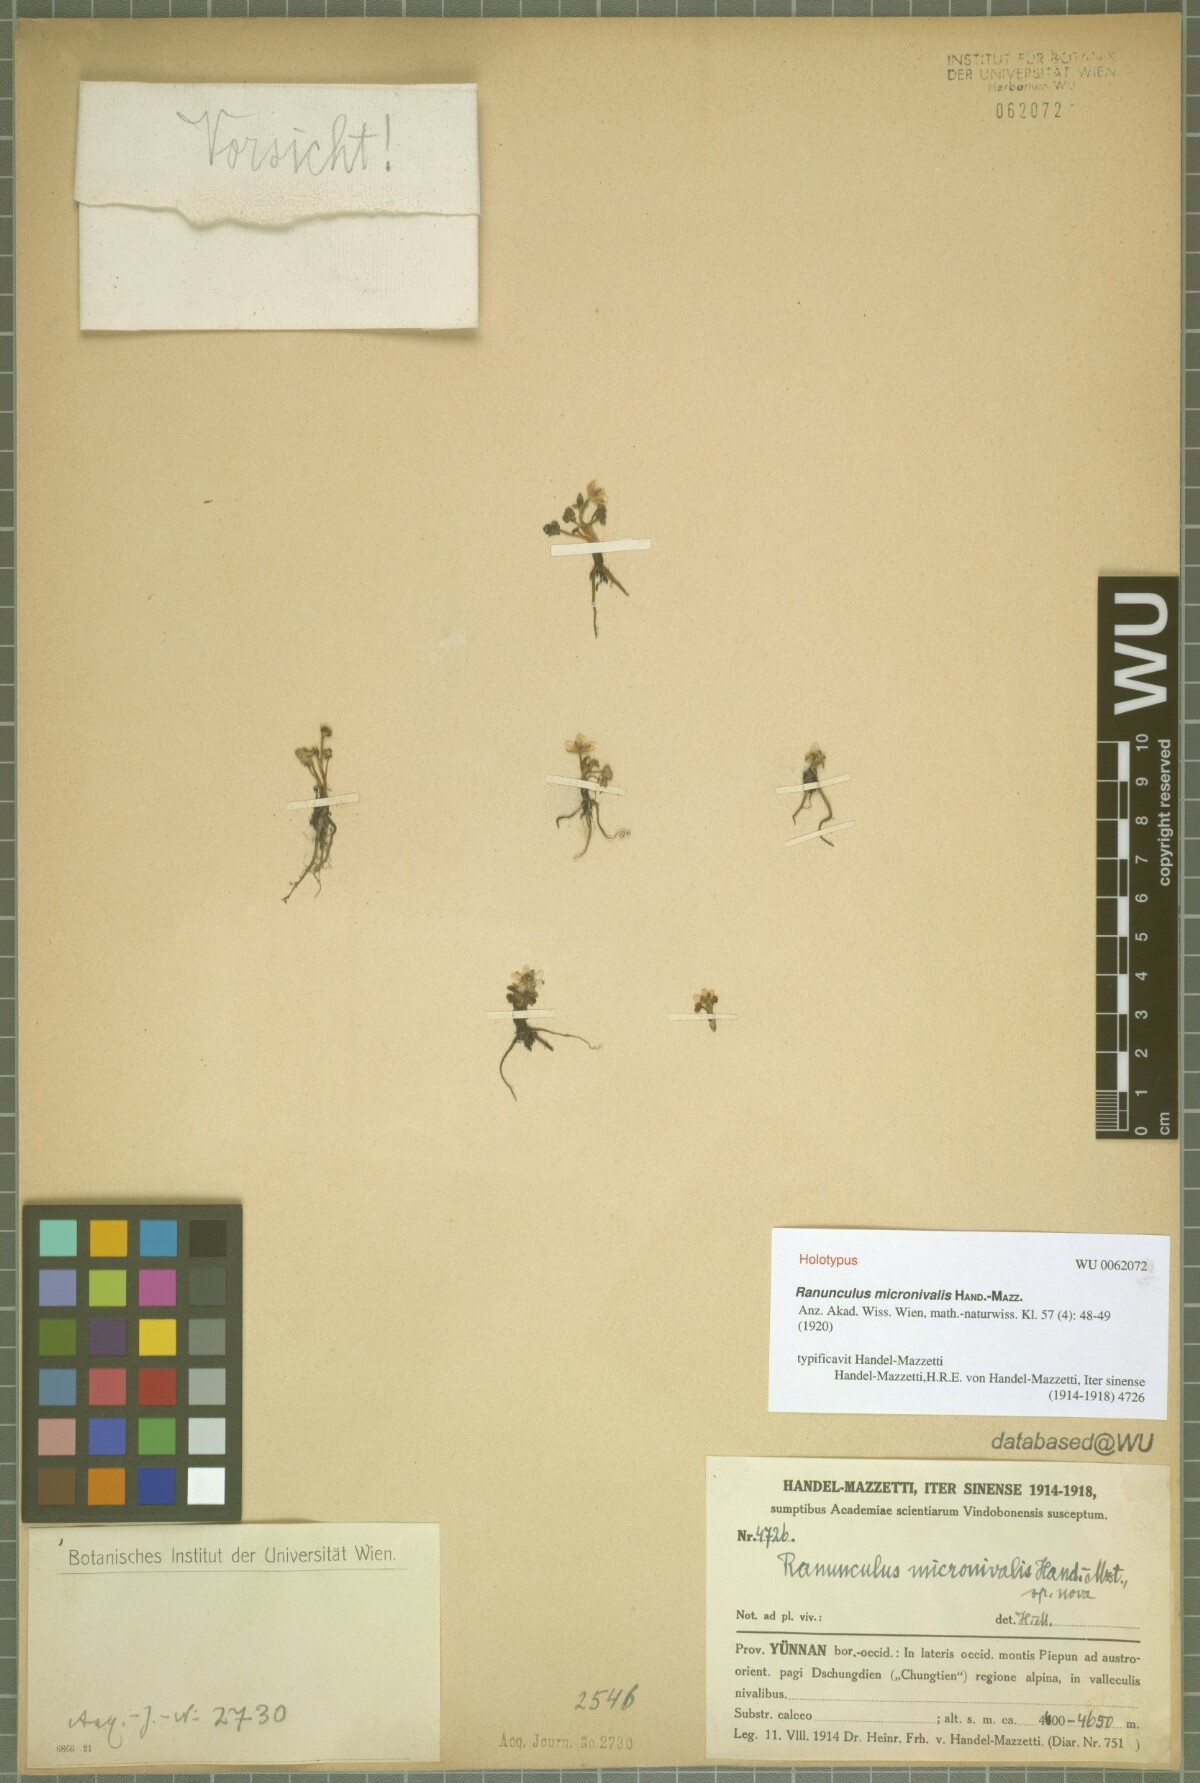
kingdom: Plantae
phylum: Tracheophyta
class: Magnoliopsida
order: Ranunculales
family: Ranunculaceae
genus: Ranunculus
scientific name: Ranunculus micronivalis
